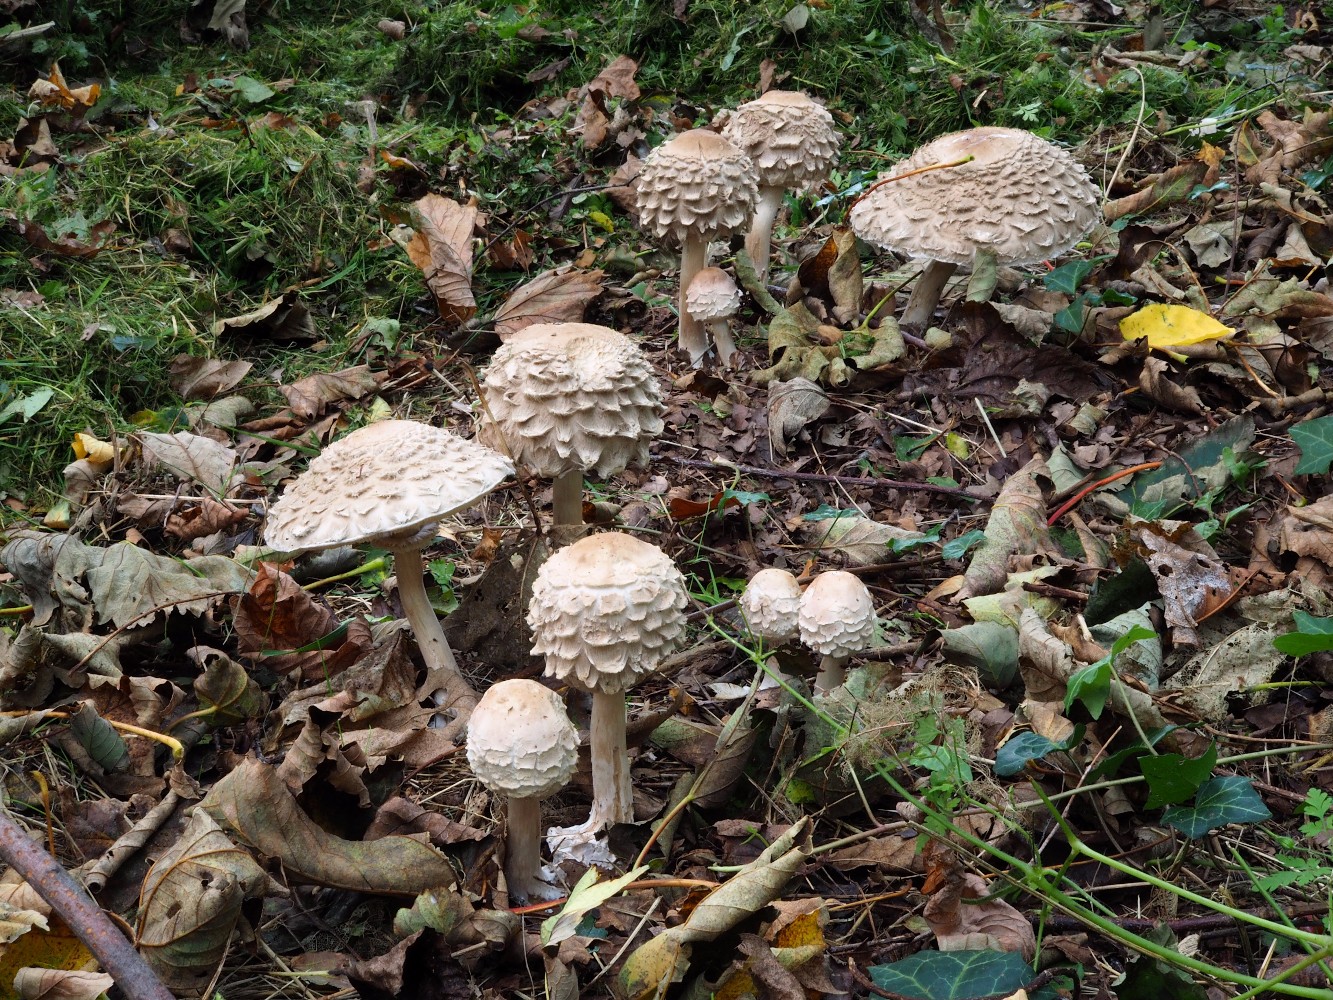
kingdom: Fungi
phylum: Basidiomycota
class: Agaricomycetes
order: Agaricales
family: Agaricaceae
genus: Chlorophyllum
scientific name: Chlorophyllum olivieri
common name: almindelig rabarberhat
